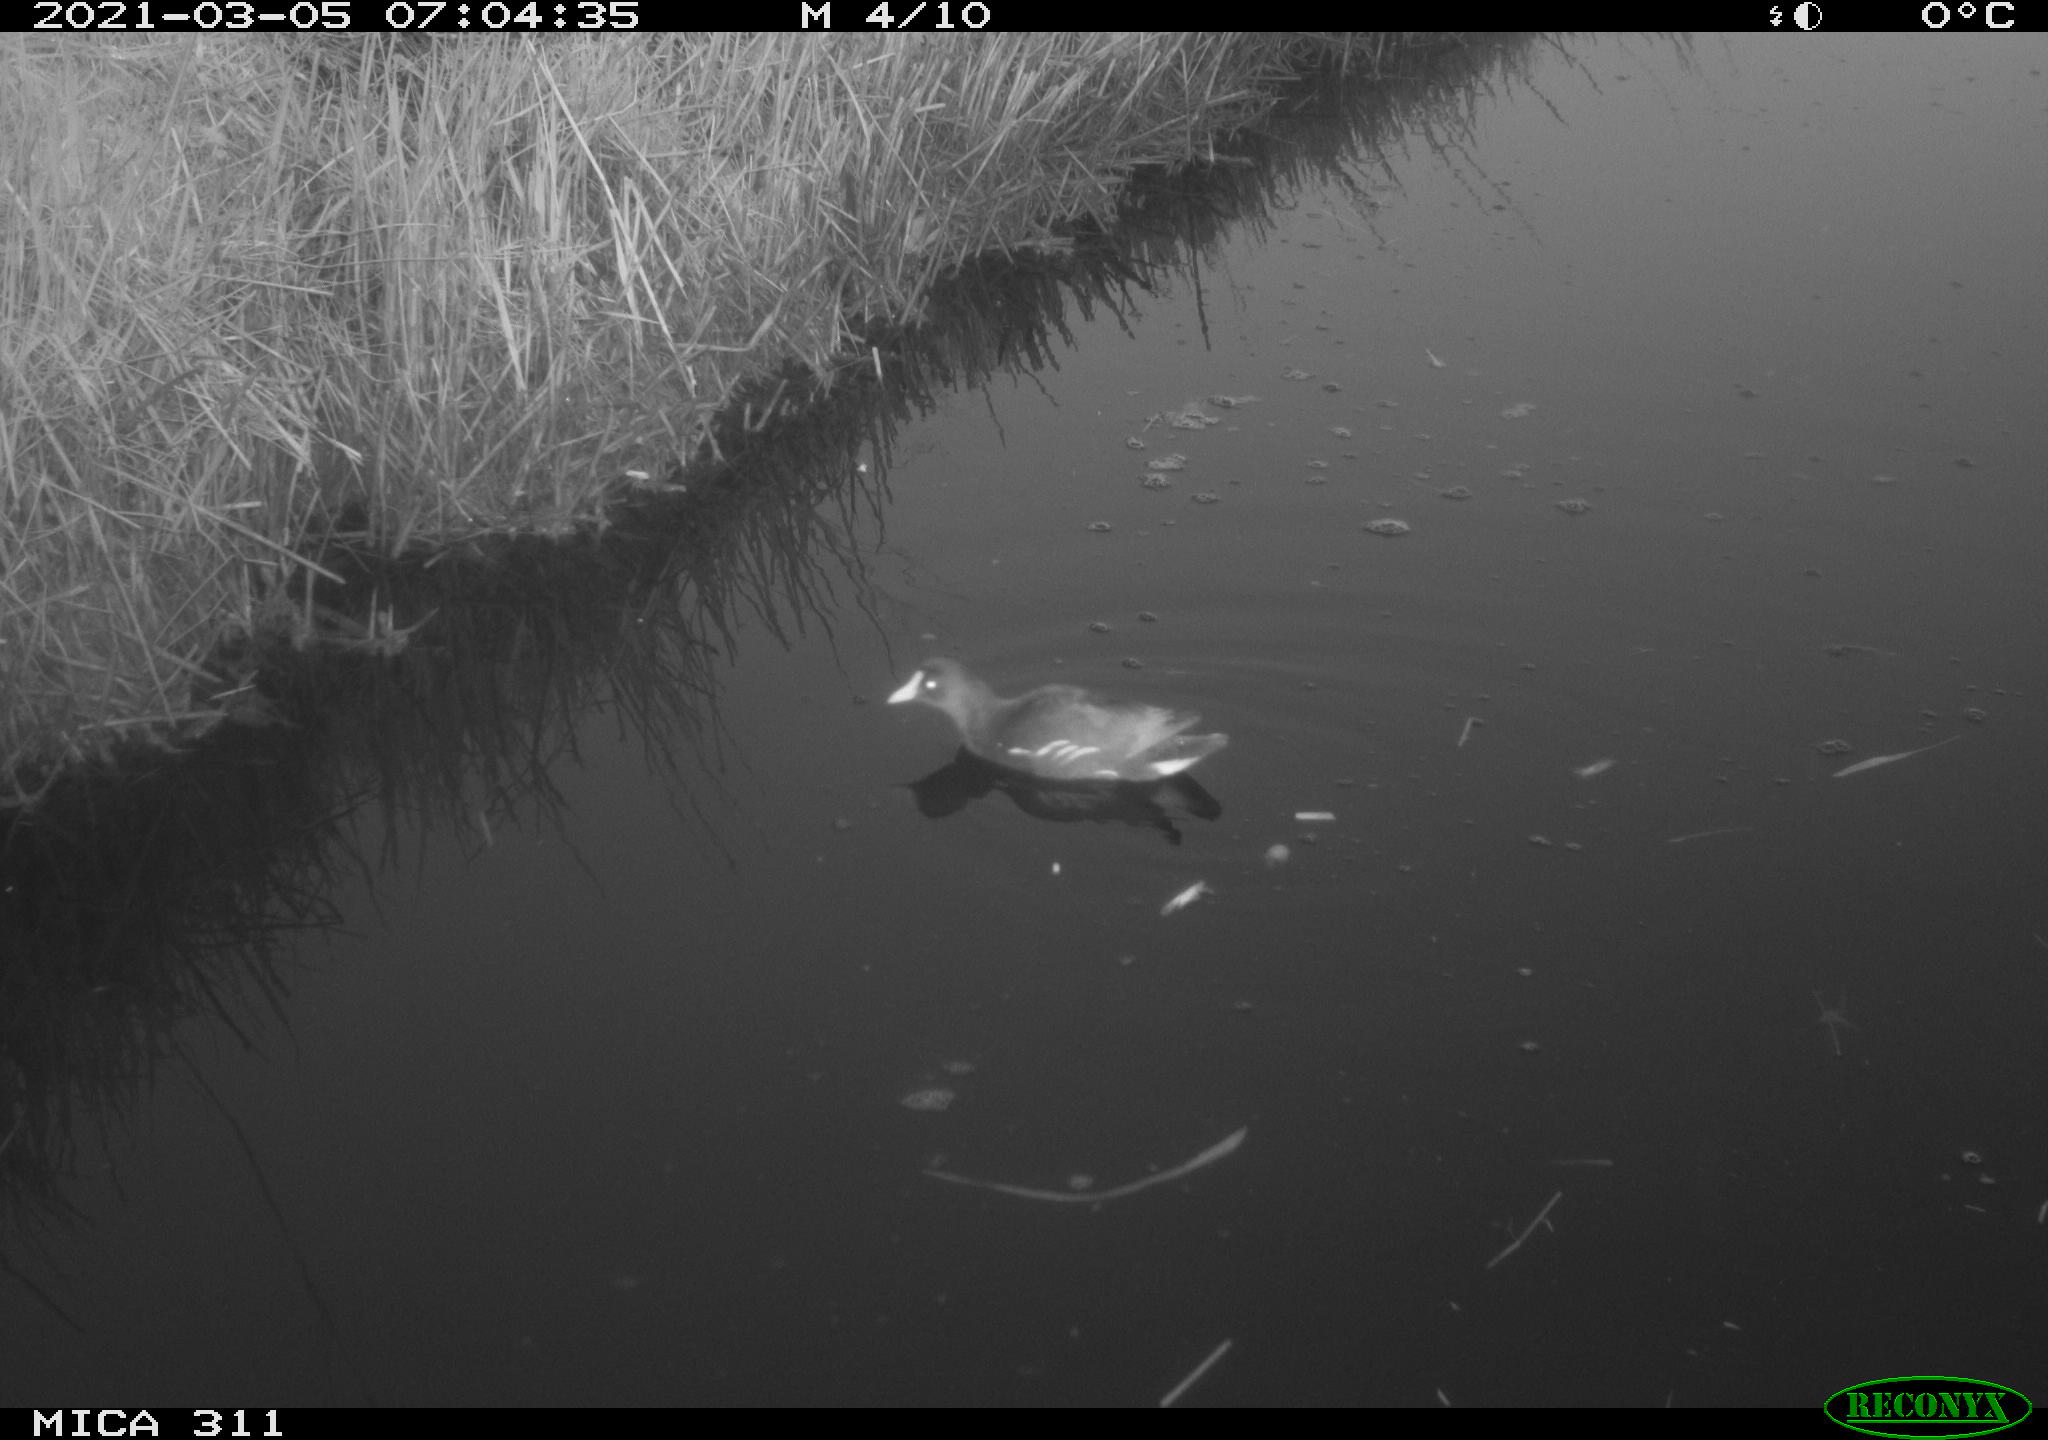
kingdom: Animalia
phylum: Chordata
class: Aves
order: Gruiformes
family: Rallidae
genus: Gallinula
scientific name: Gallinula chloropus
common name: Common moorhen
